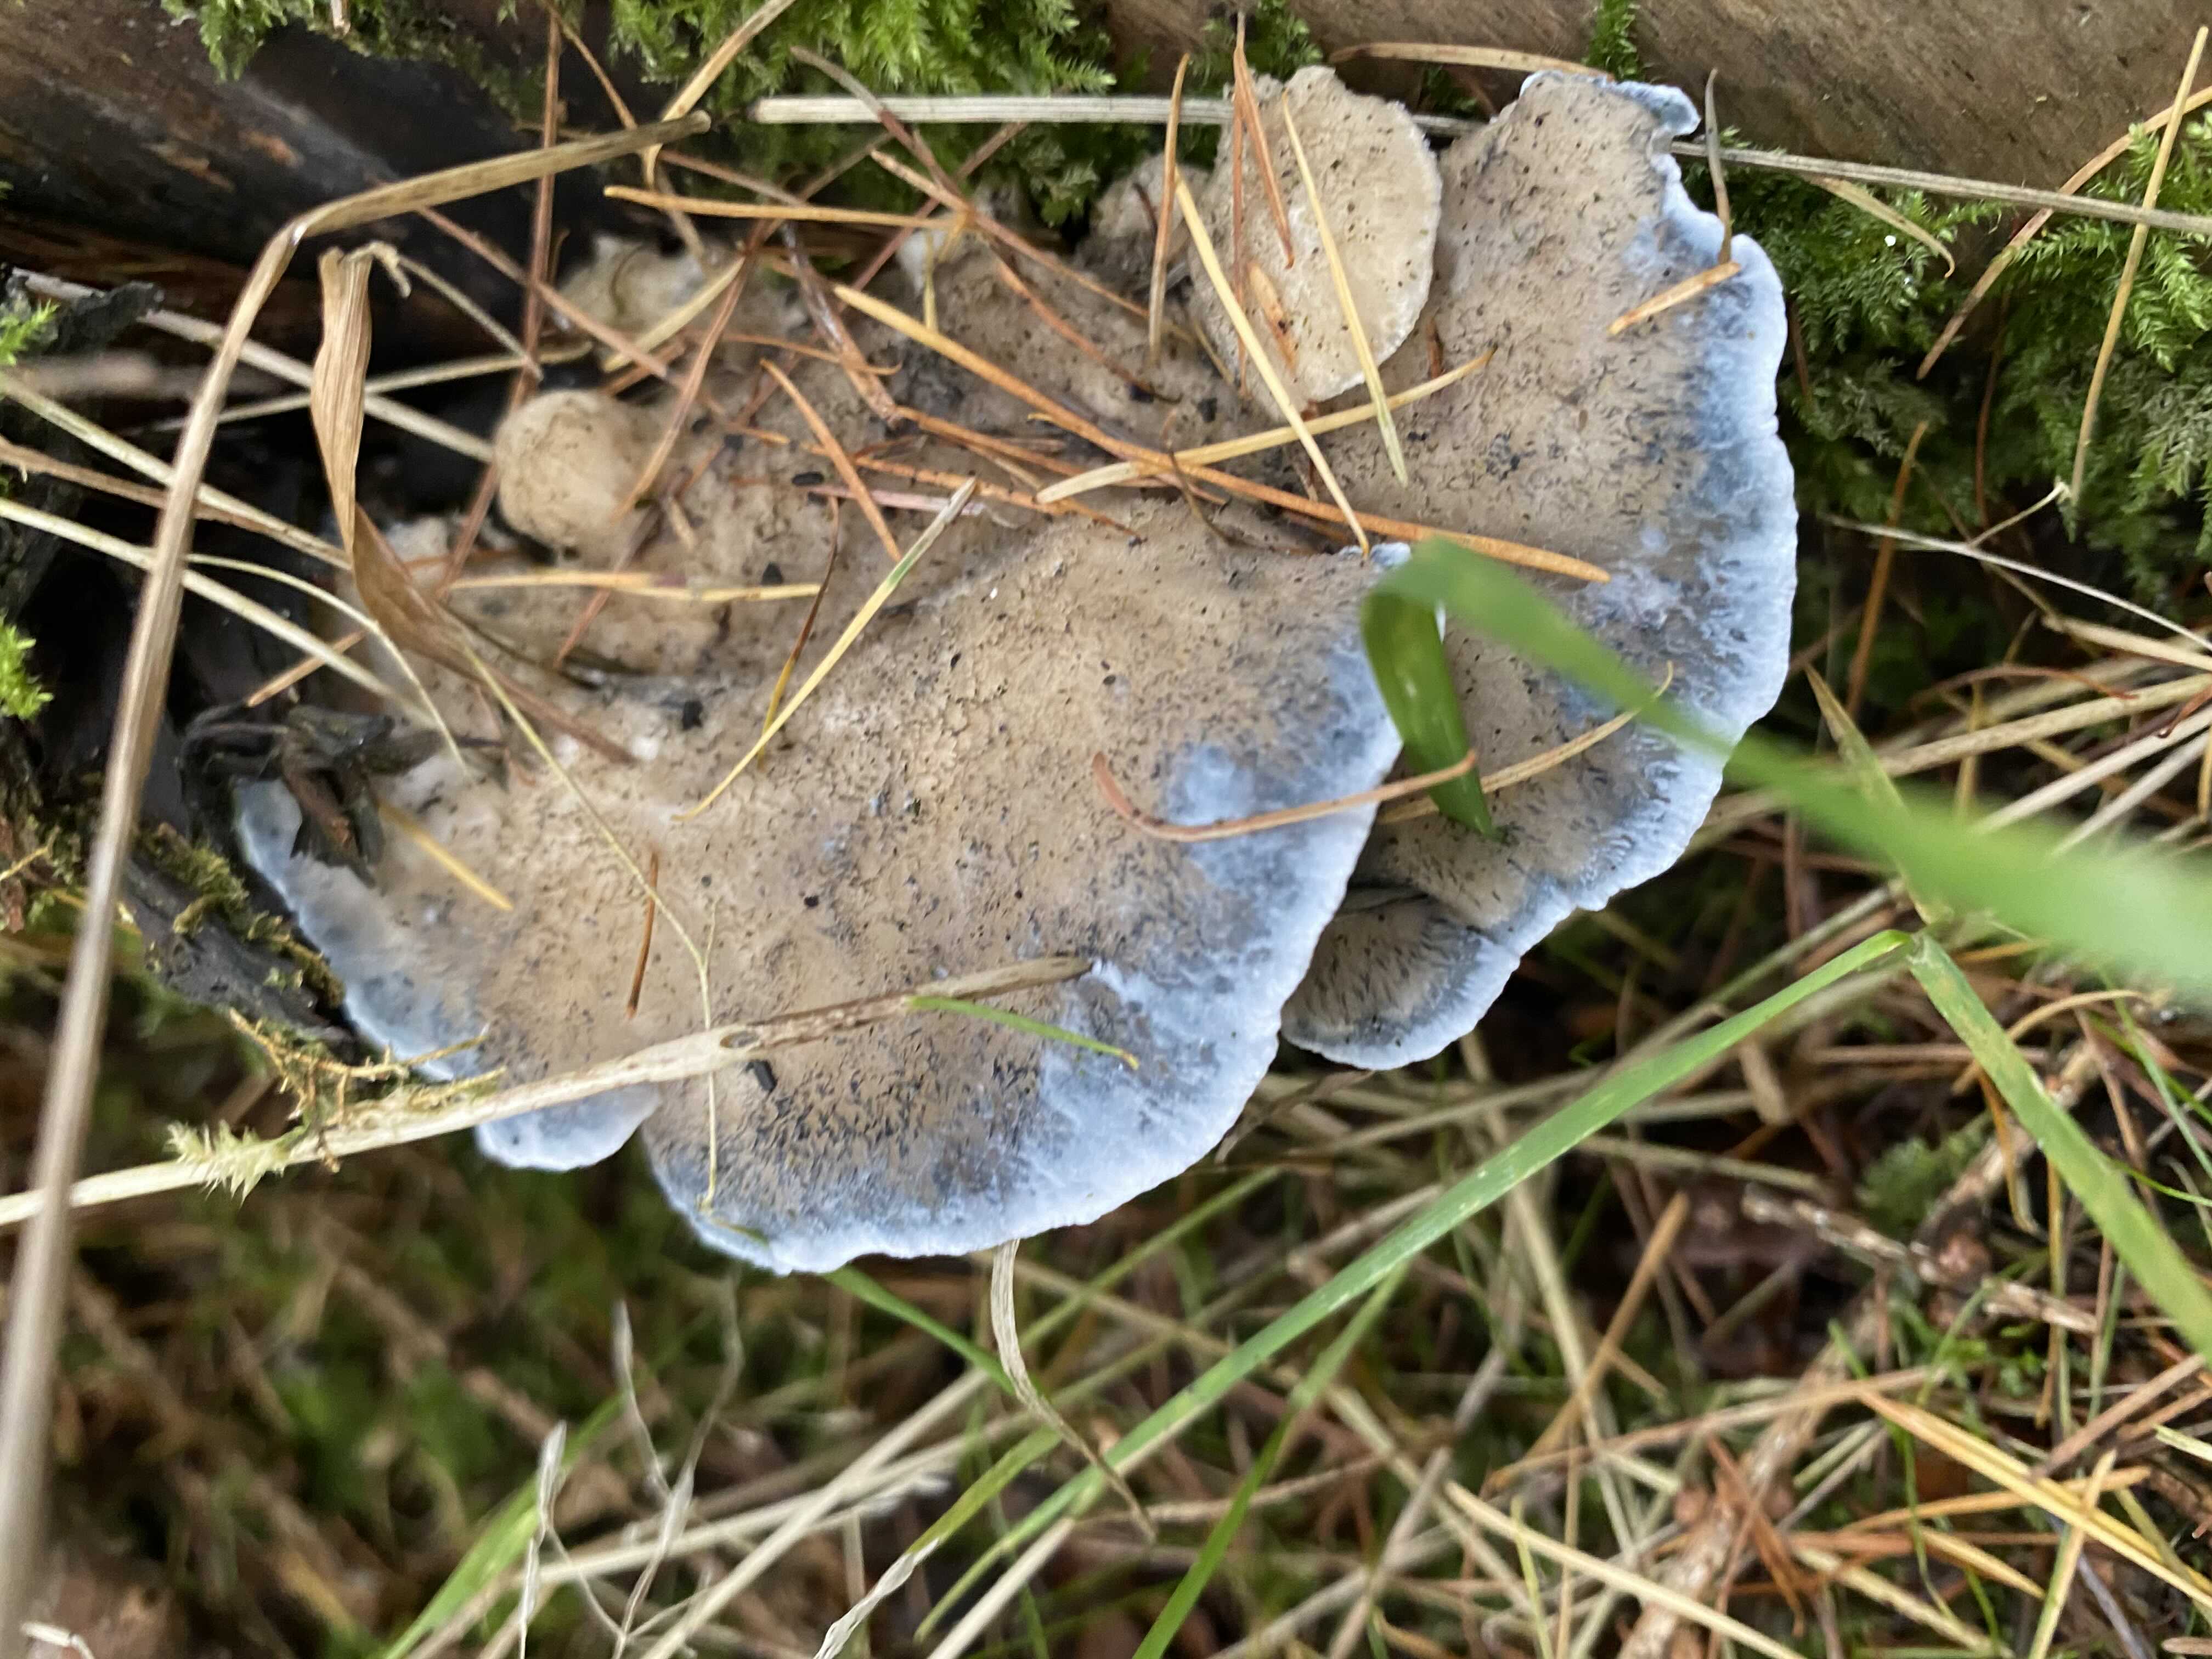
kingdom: Fungi
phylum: Basidiomycota
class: Agaricomycetes
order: Polyporales
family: Polyporaceae
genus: Cyanosporus
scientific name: Cyanosporus caesius
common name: blålig kødporesvamp
